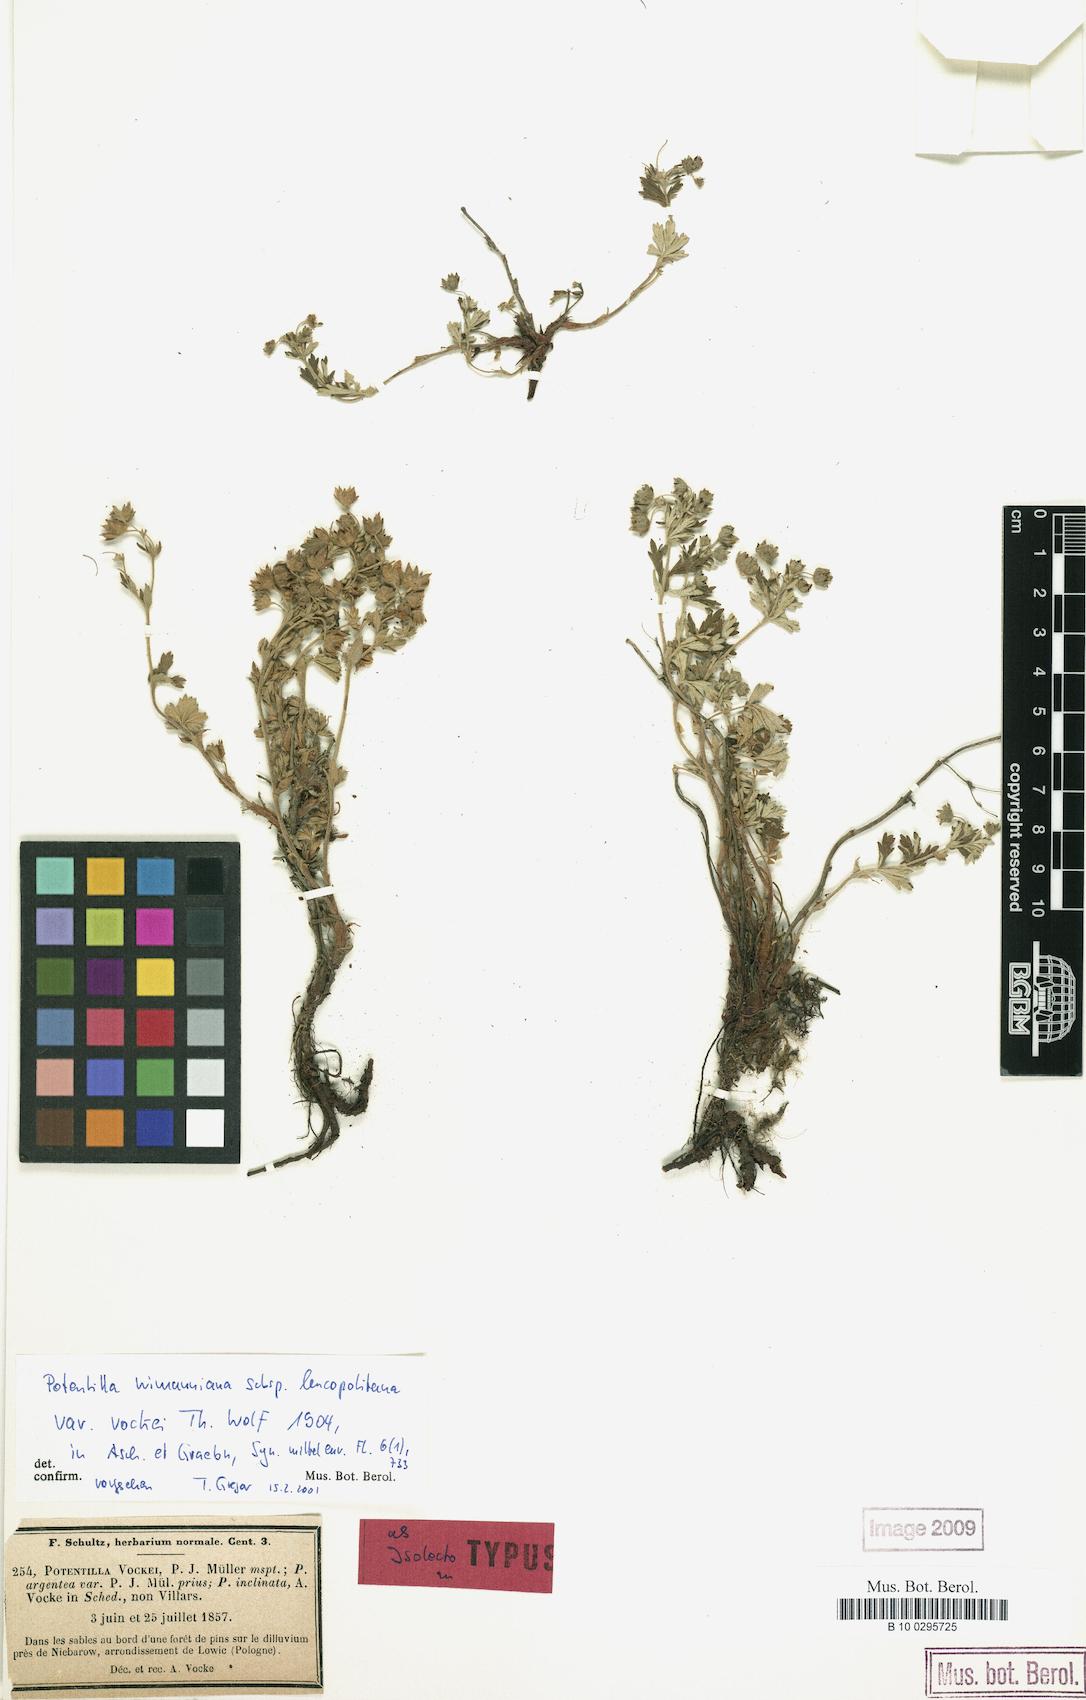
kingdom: Plantae
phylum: Tracheophyta
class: Magnoliopsida
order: Rosales
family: Rosaceae
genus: Potentilla
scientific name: Potentilla
